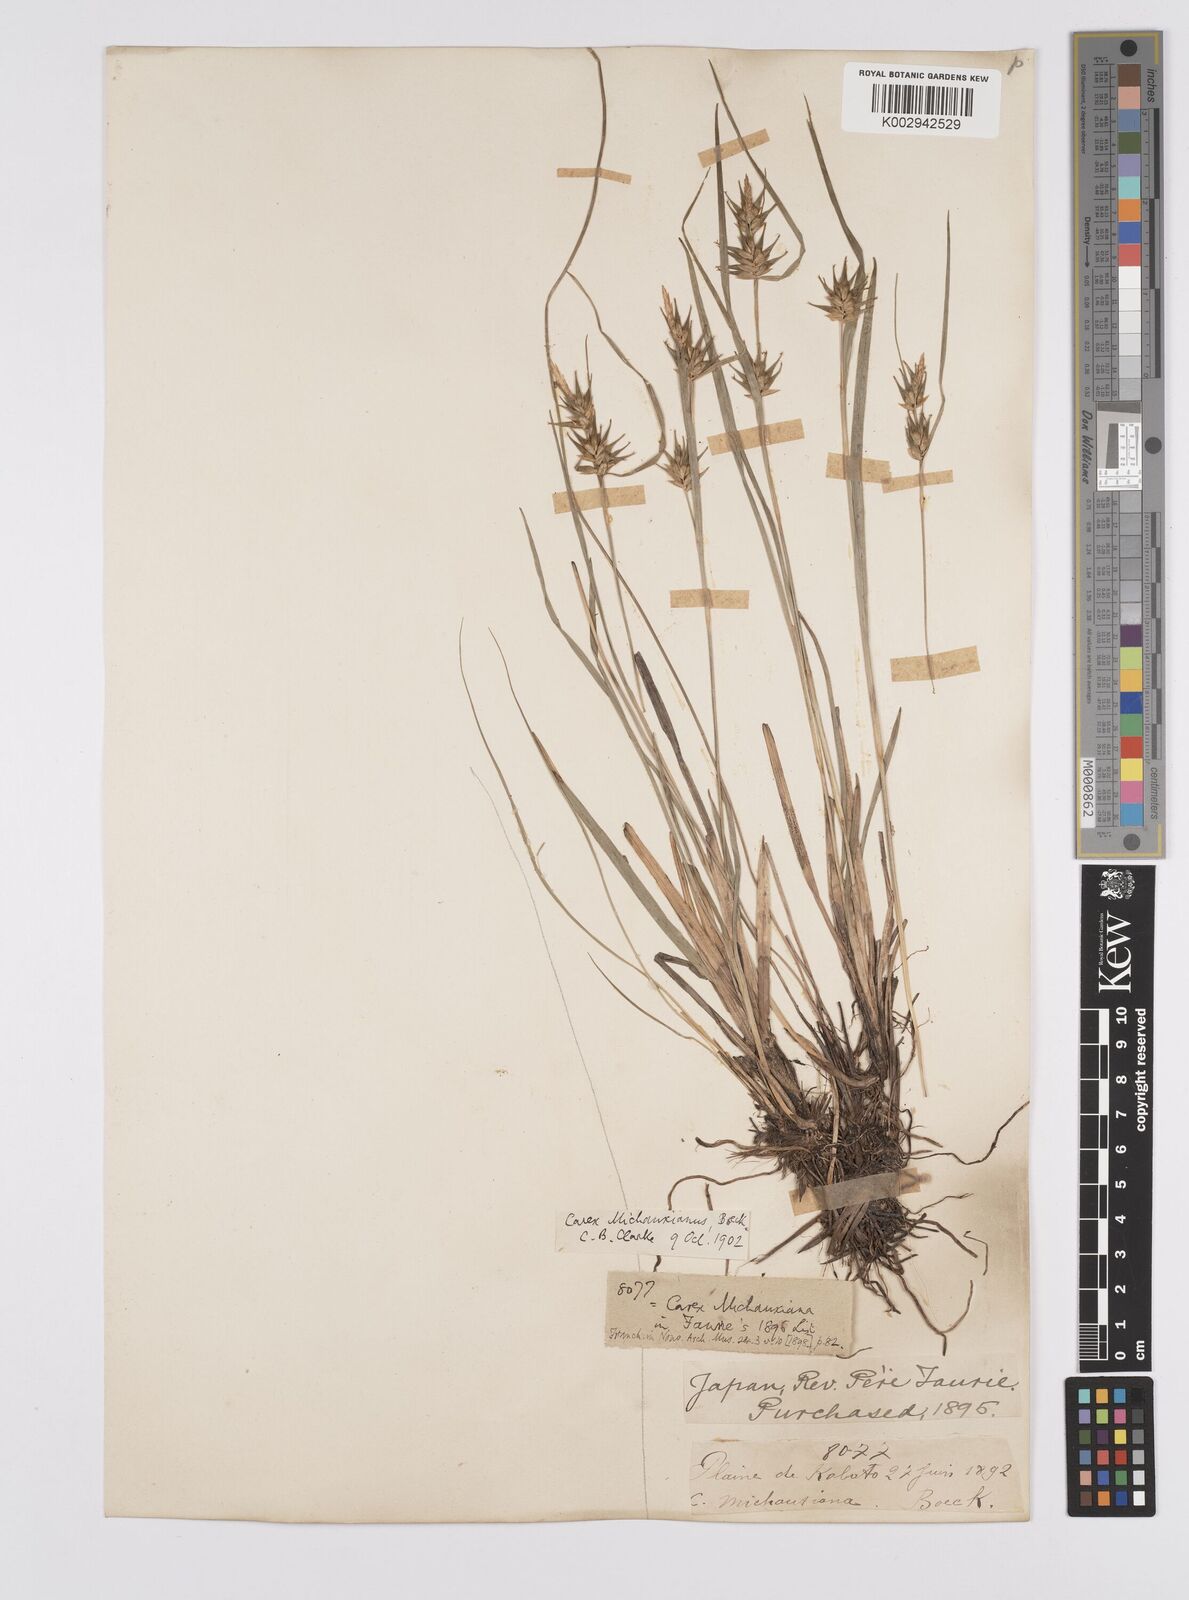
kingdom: Plantae
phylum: Tracheophyta
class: Liliopsida
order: Poales
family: Cyperaceae
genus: Carex
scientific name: Carex michauxiana
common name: Michaux's sedge
